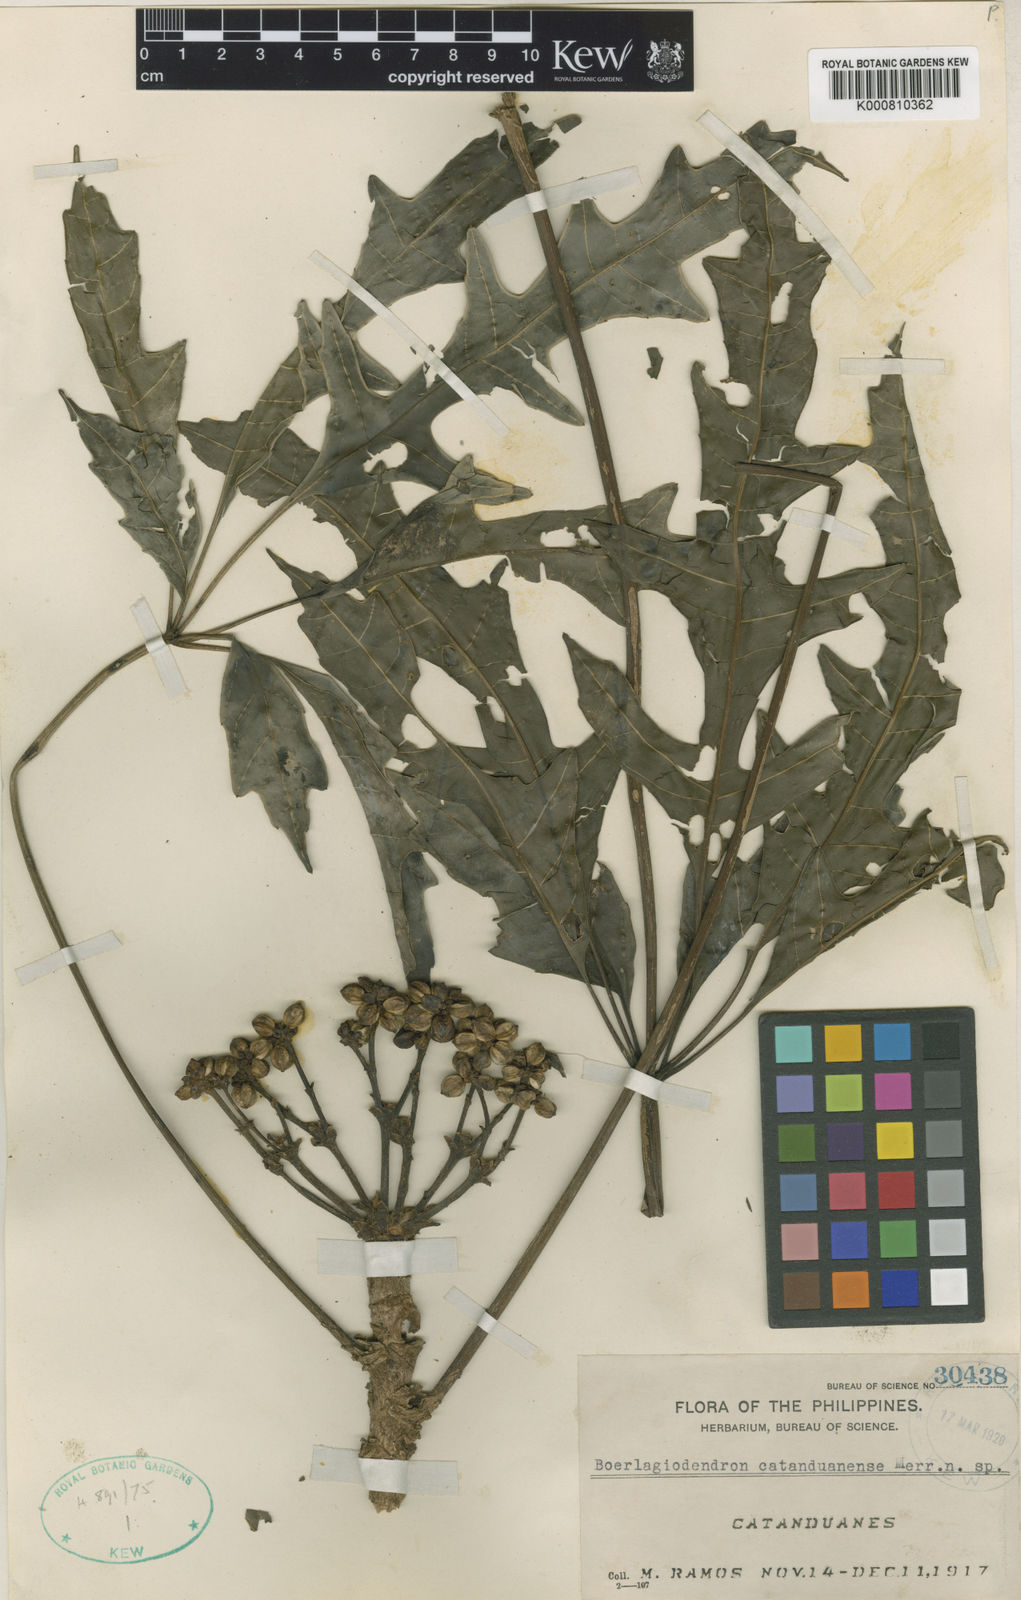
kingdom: Plantae
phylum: Tracheophyta
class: Magnoliopsida
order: Apiales
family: Araliaceae
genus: Osmoxylon
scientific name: Osmoxylon catanduanense
